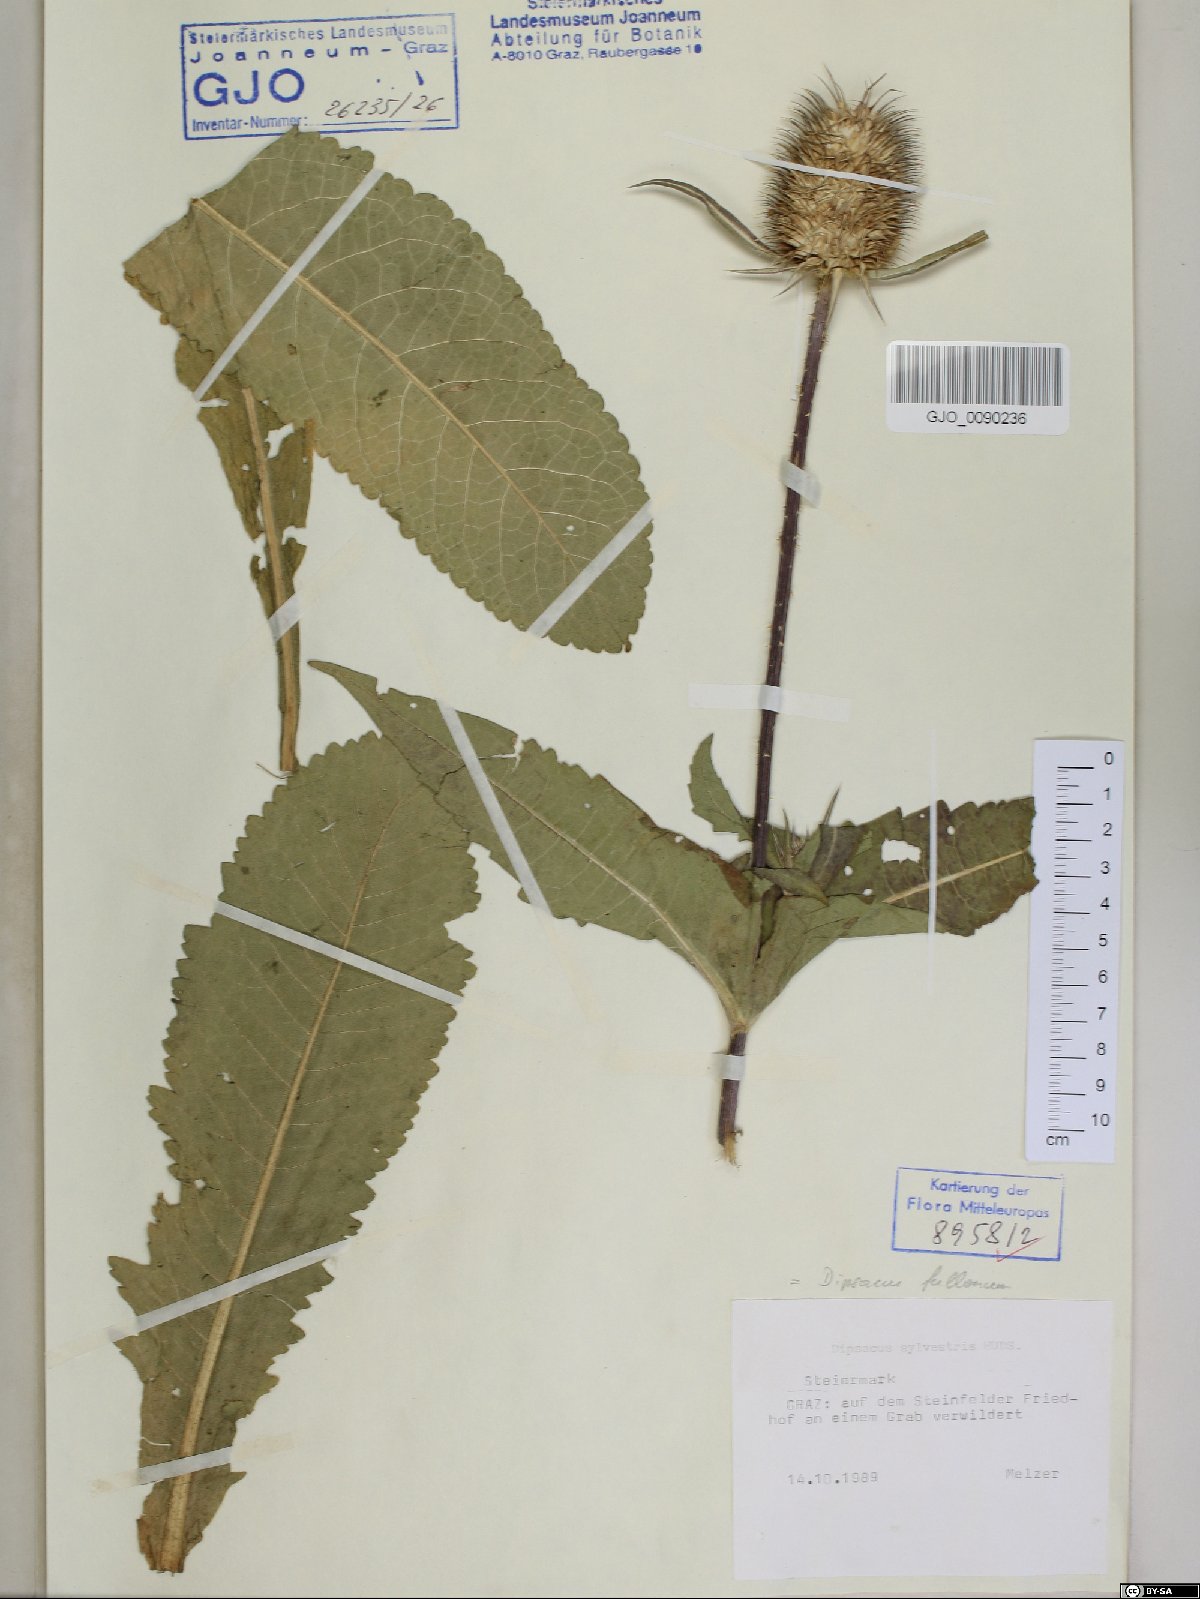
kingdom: Plantae
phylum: Tracheophyta
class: Magnoliopsida
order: Dipsacales
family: Caprifoliaceae
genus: Dipsacus
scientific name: Dipsacus fullonum
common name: Teasel
